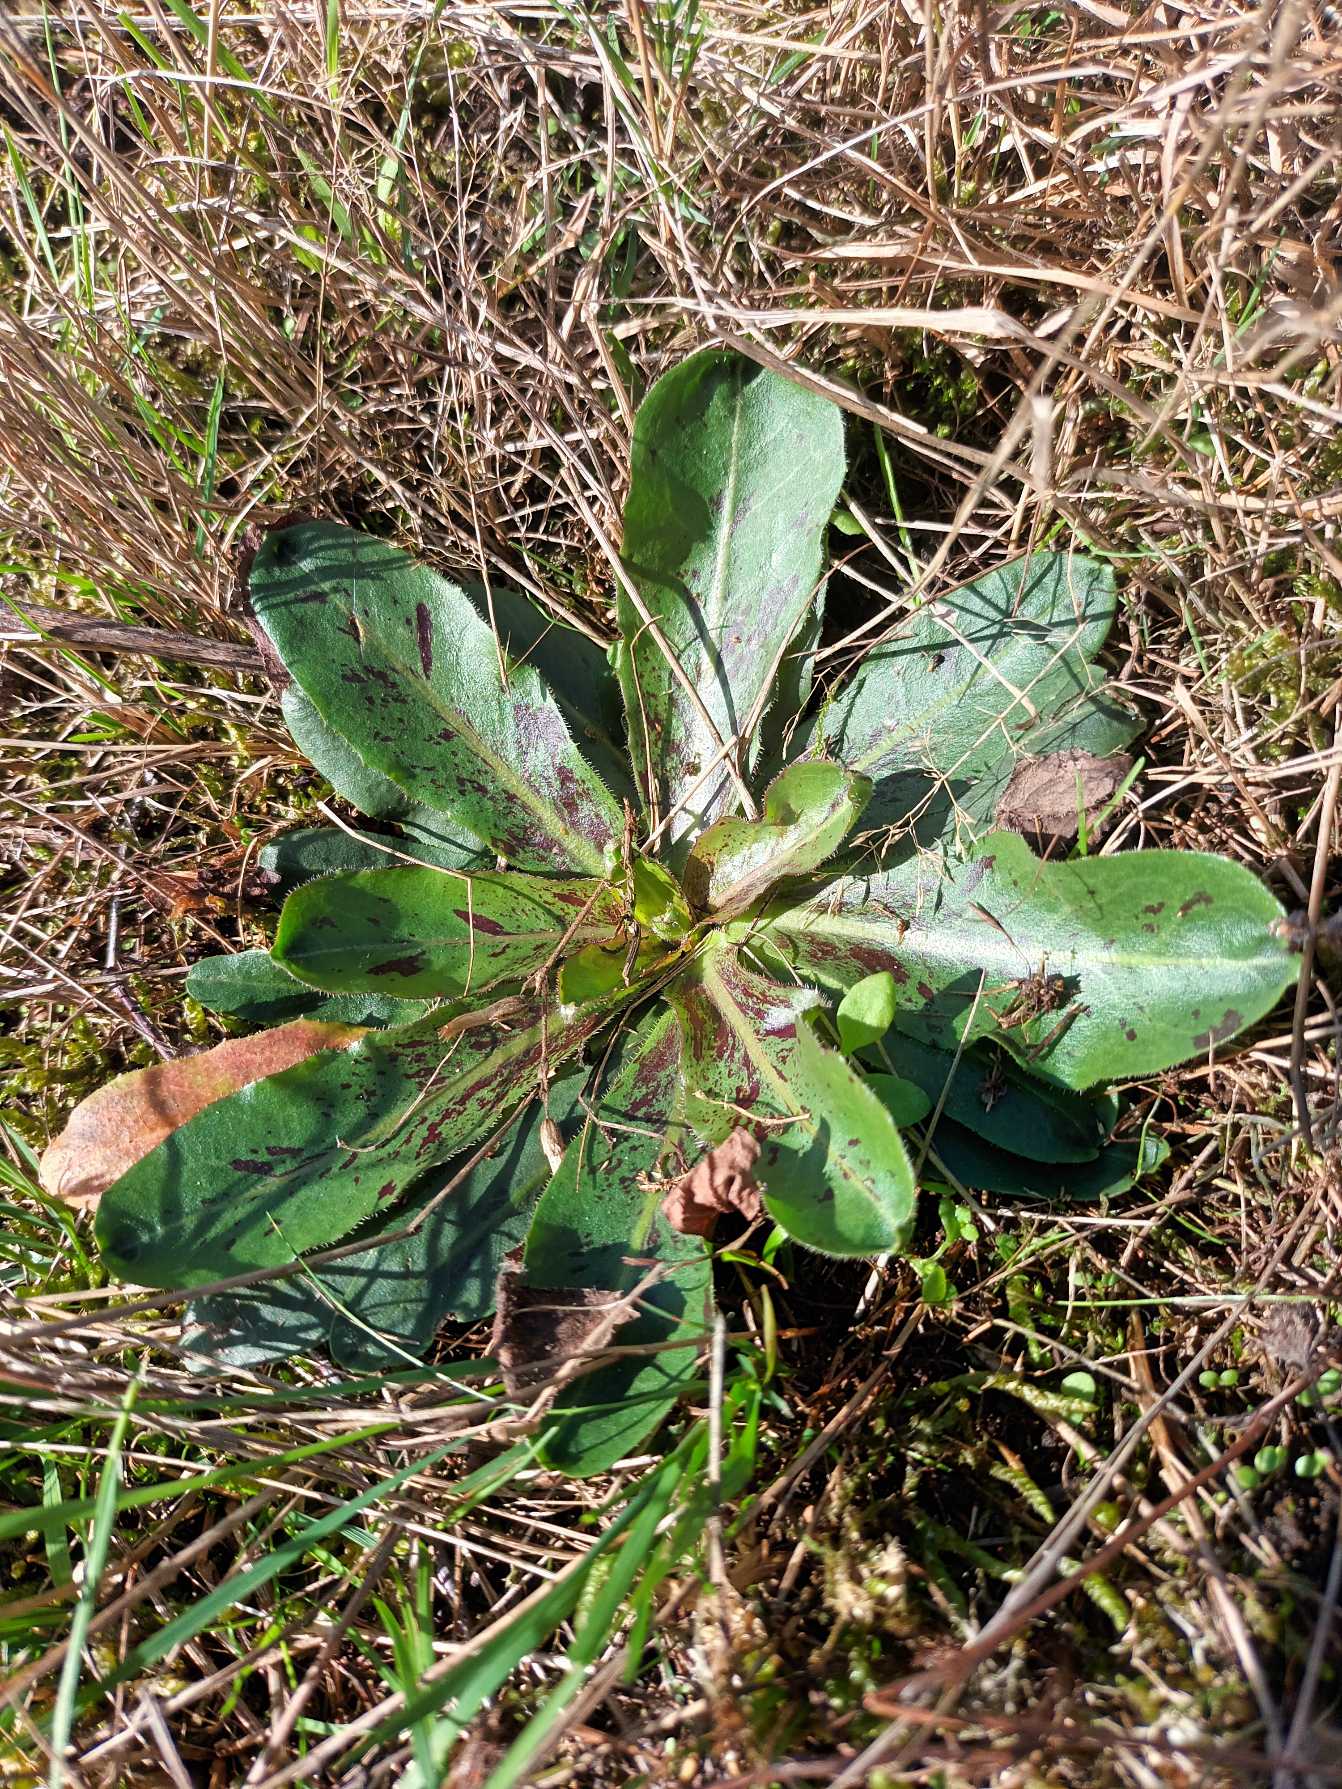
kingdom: Plantae
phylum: Tracheophyta
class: Magnoliopsida
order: Asterales
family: Asteraceae
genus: Trommsdorffia
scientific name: Trommsdorffia maculata
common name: Plettet kongepen
